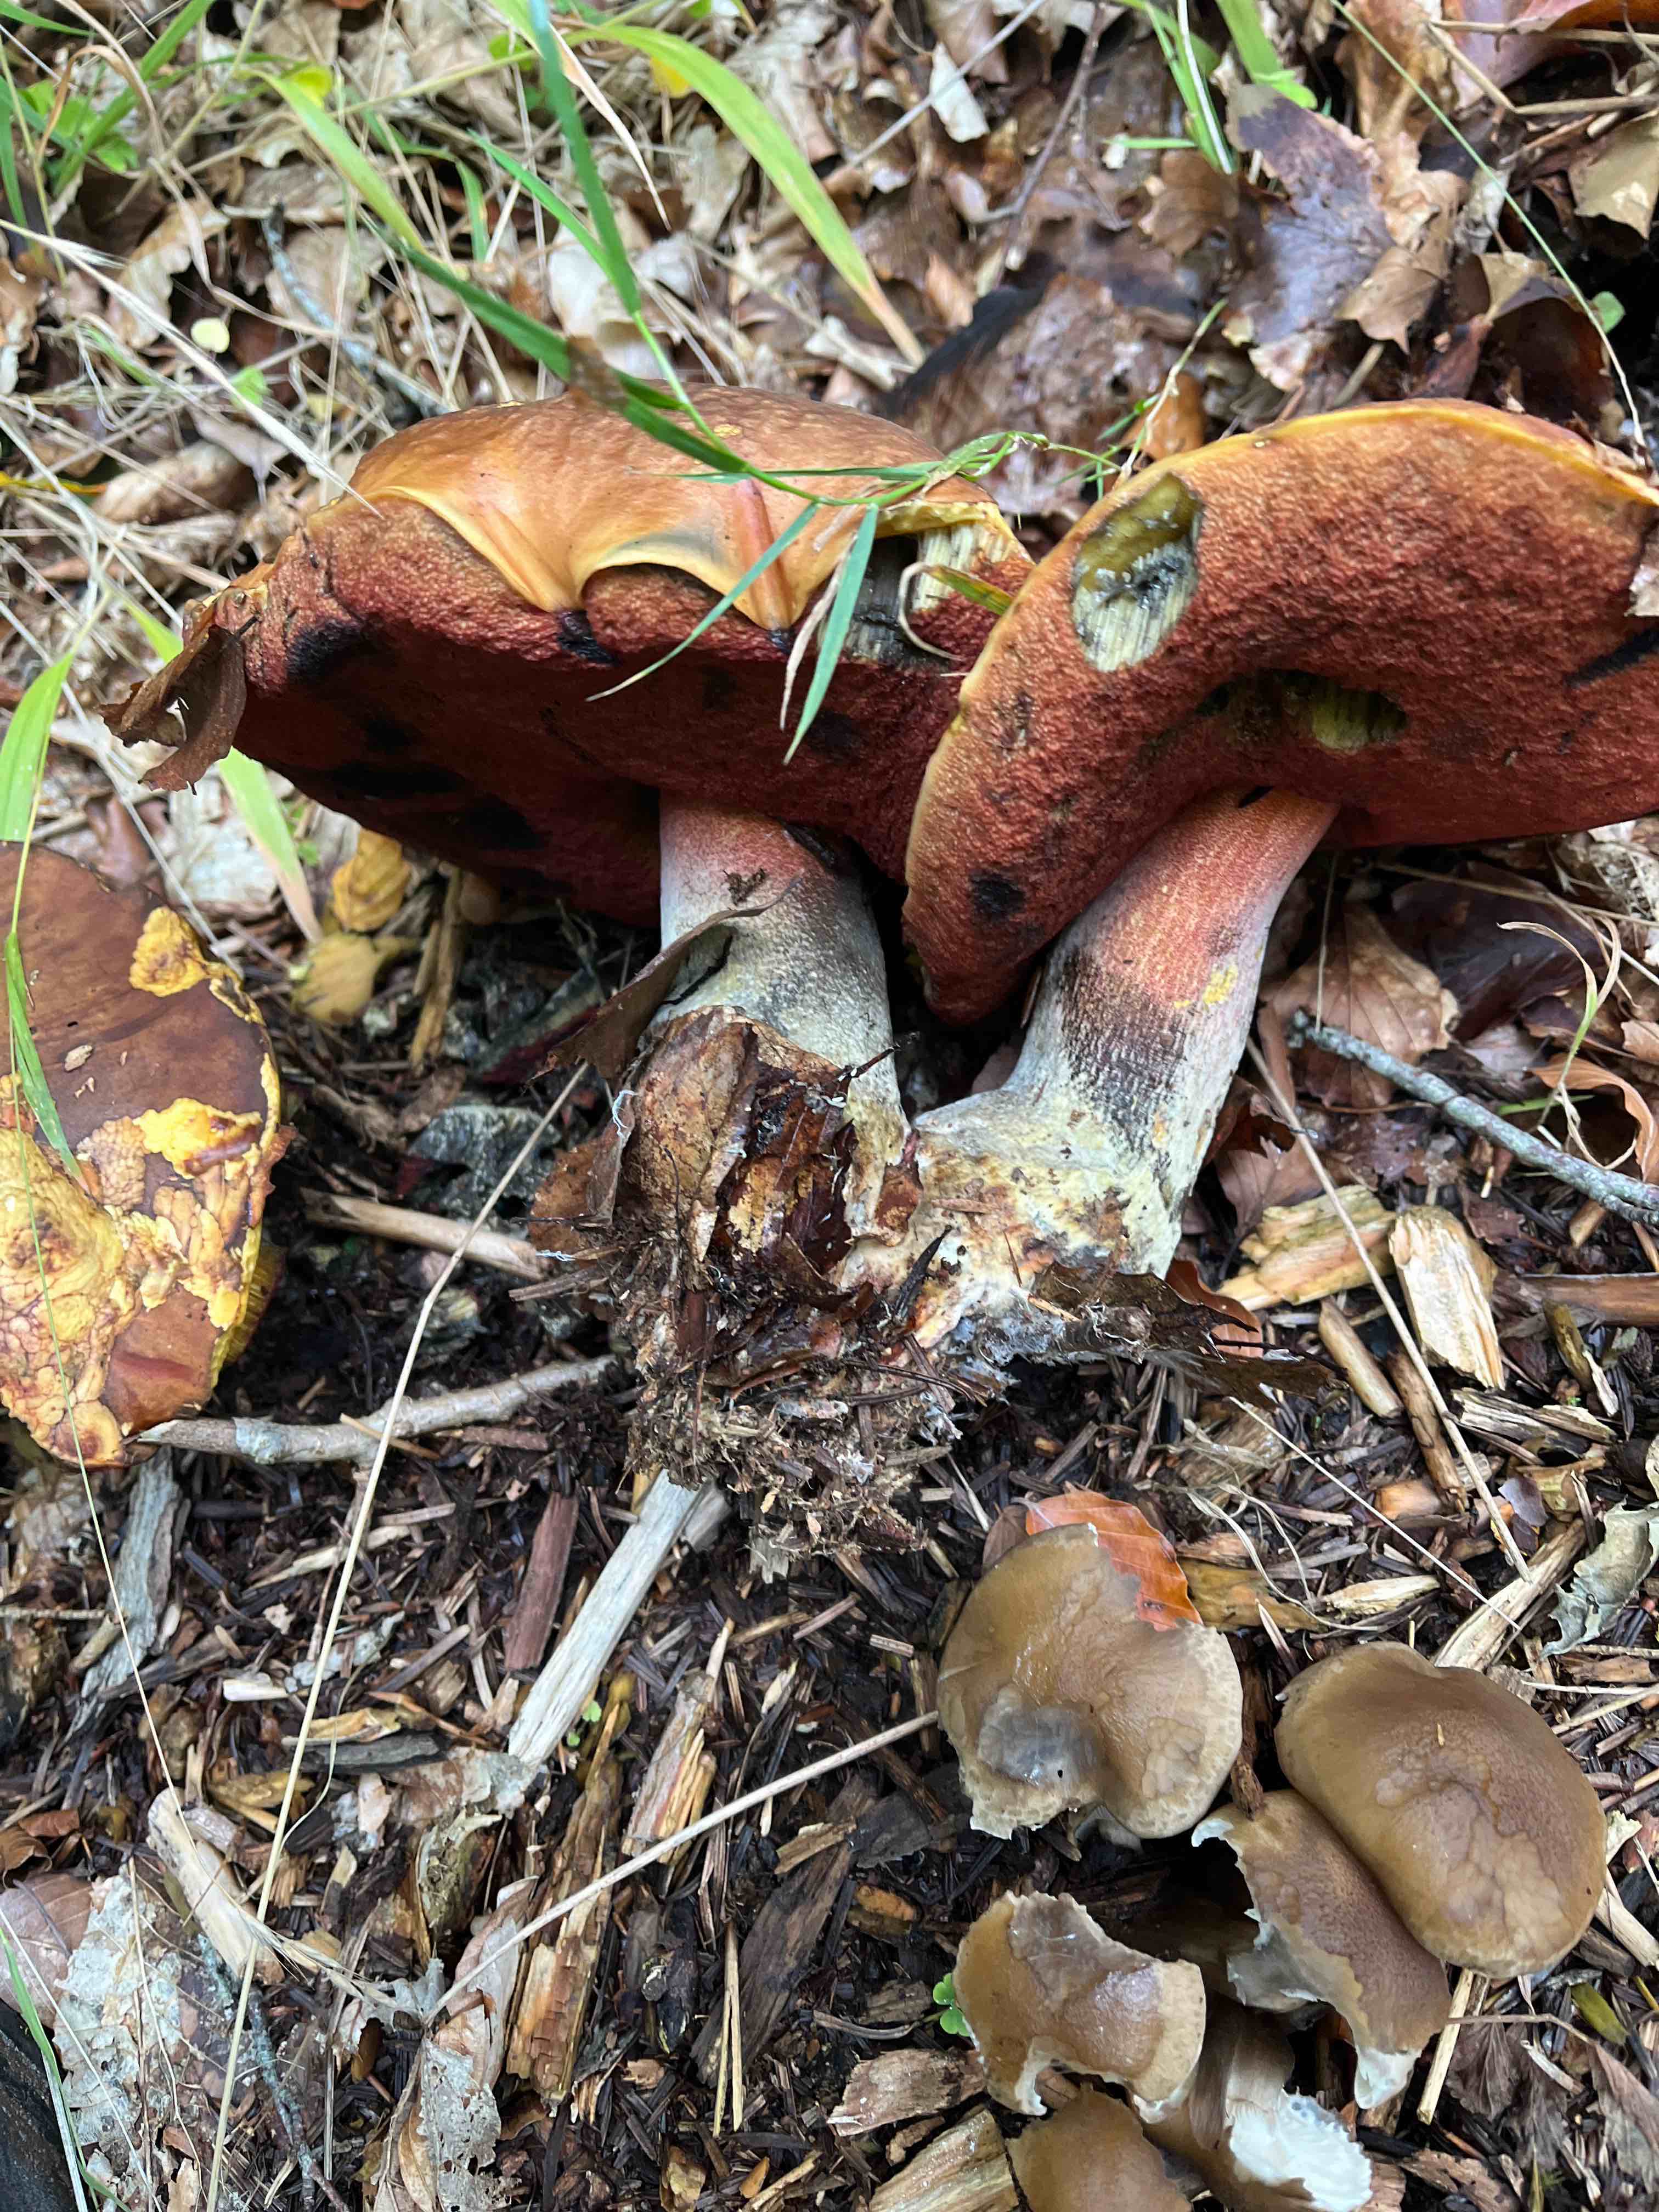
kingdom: Fungi
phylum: Basidiomycota
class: Agaricomycetes
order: Boletales
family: Boletaceae
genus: Neoboletus
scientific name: Neoboletus erythropus
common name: punktstokket indigorørhat
